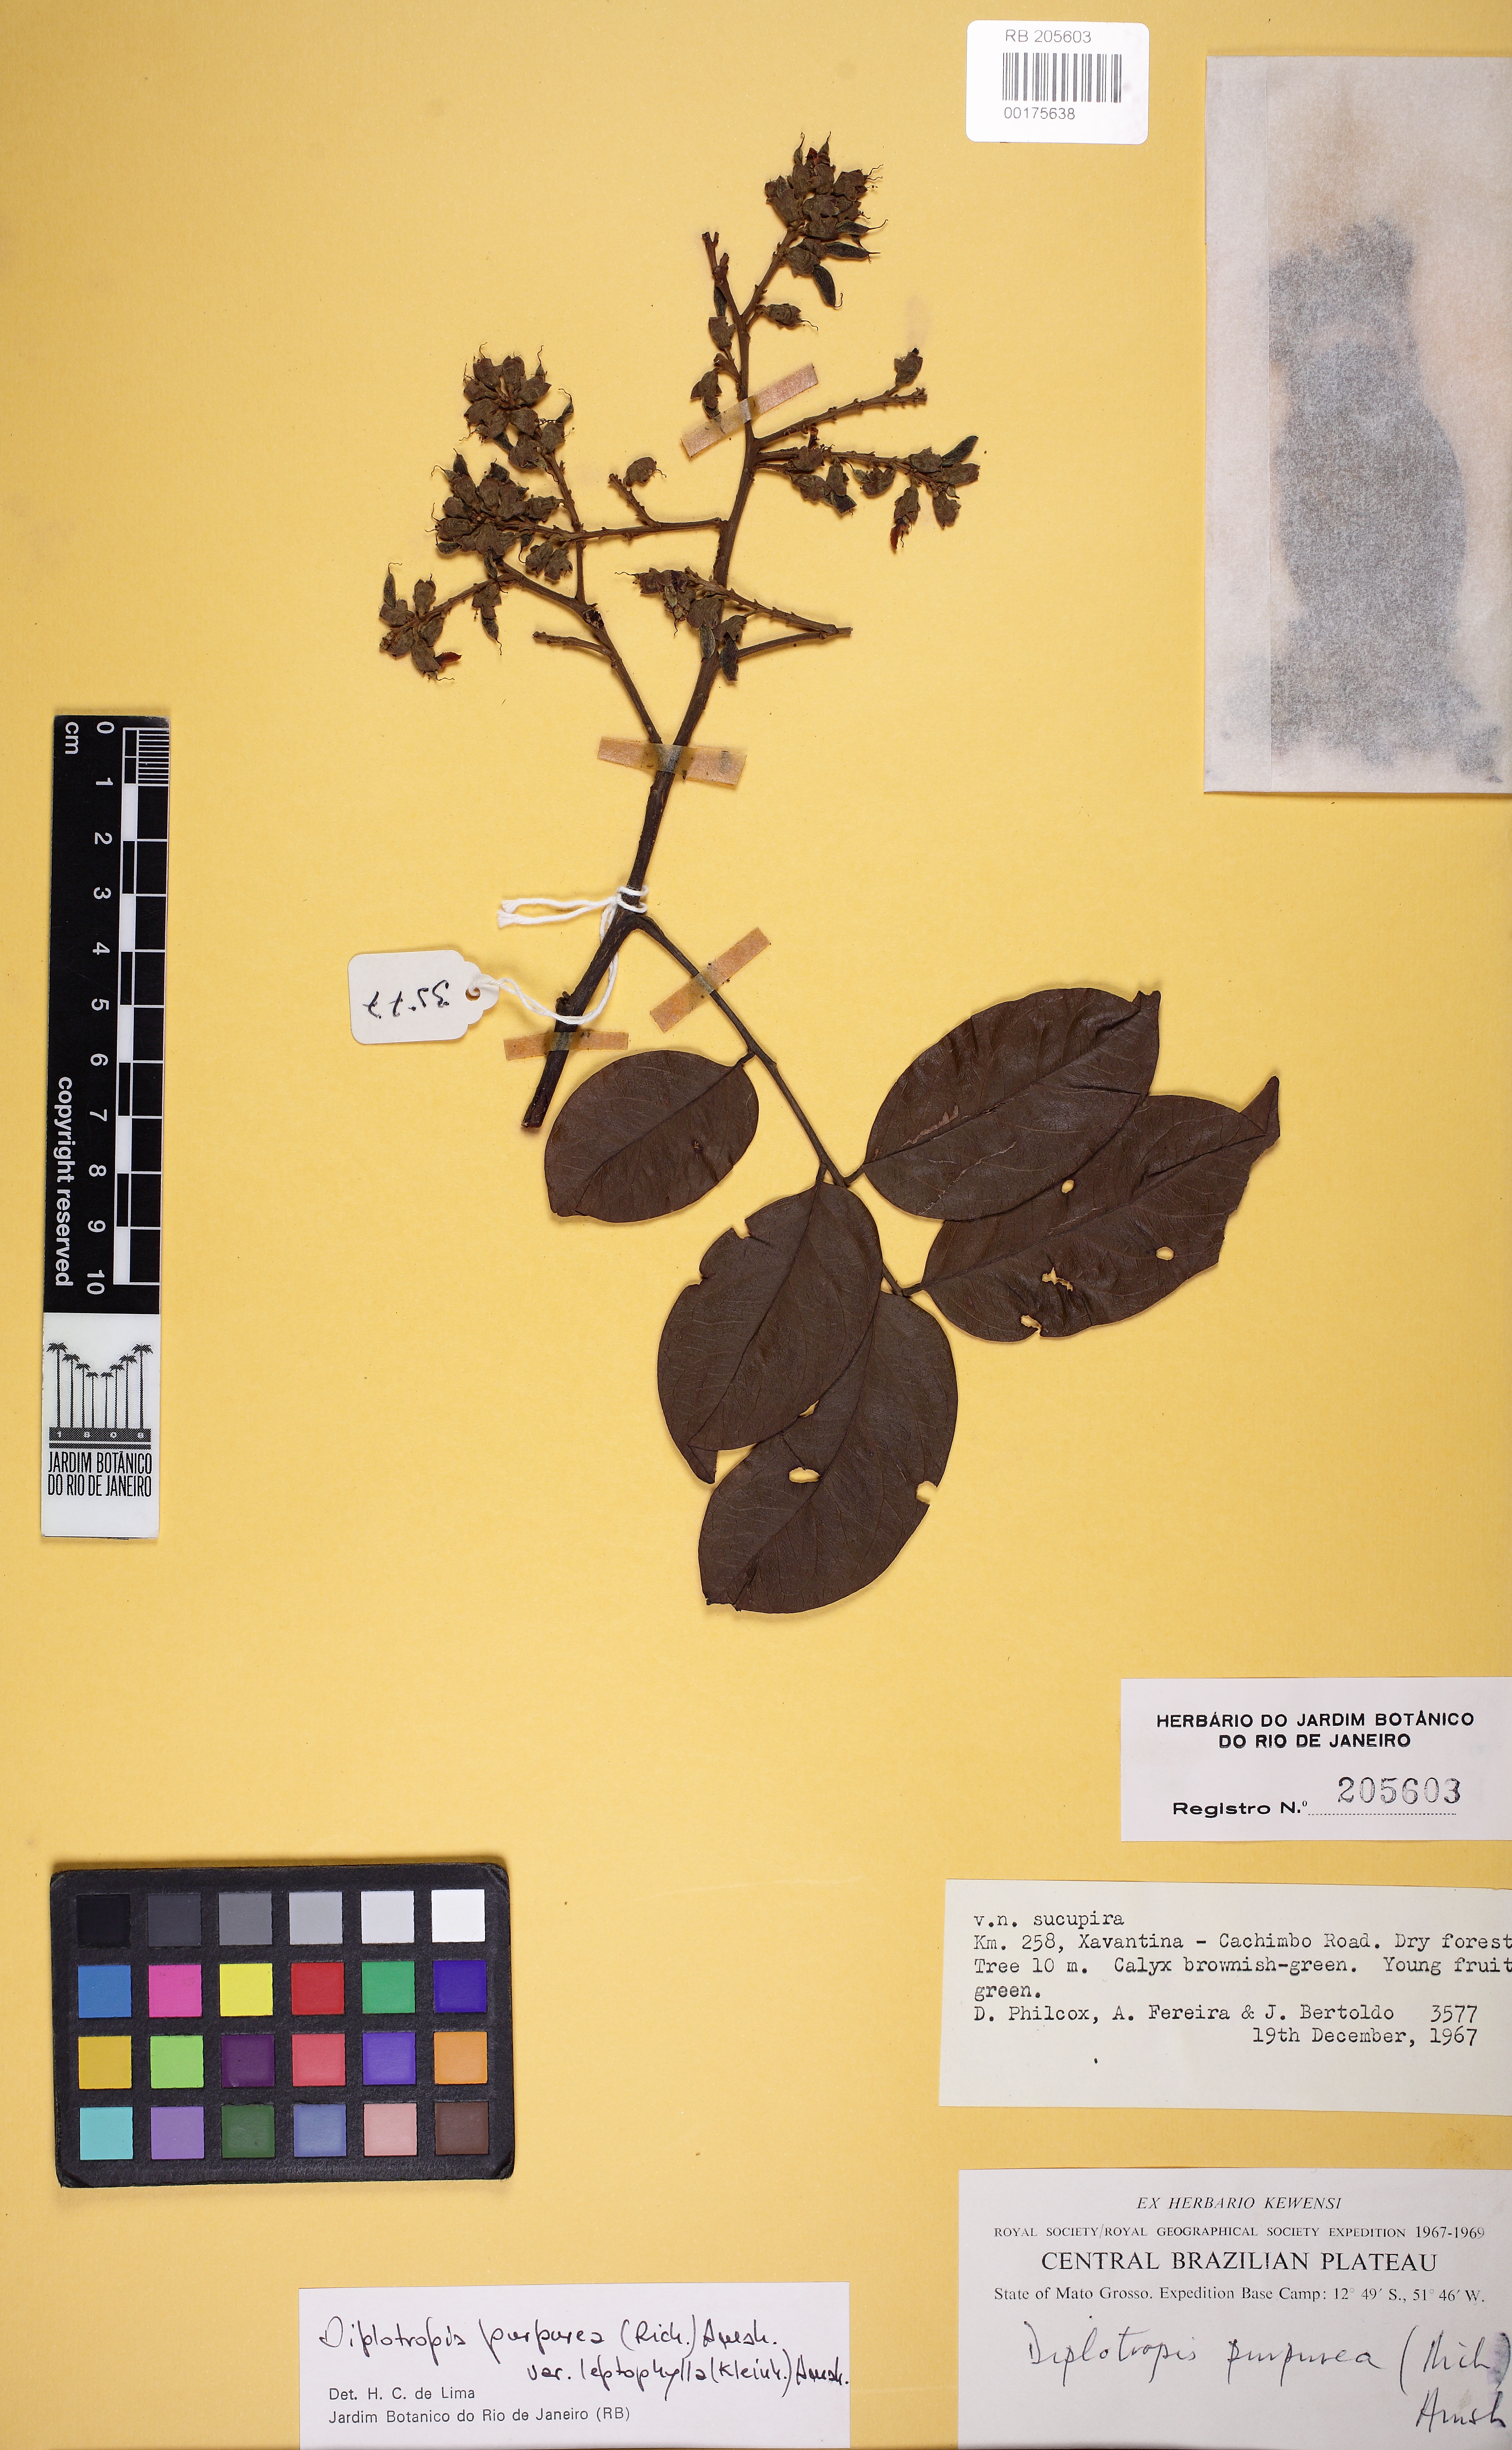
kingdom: Plantae
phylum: Tracheophyta
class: Magnoliopsida
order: Fabales
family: Fabaceae
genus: Diplotropis
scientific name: Diplotropis purpurea
